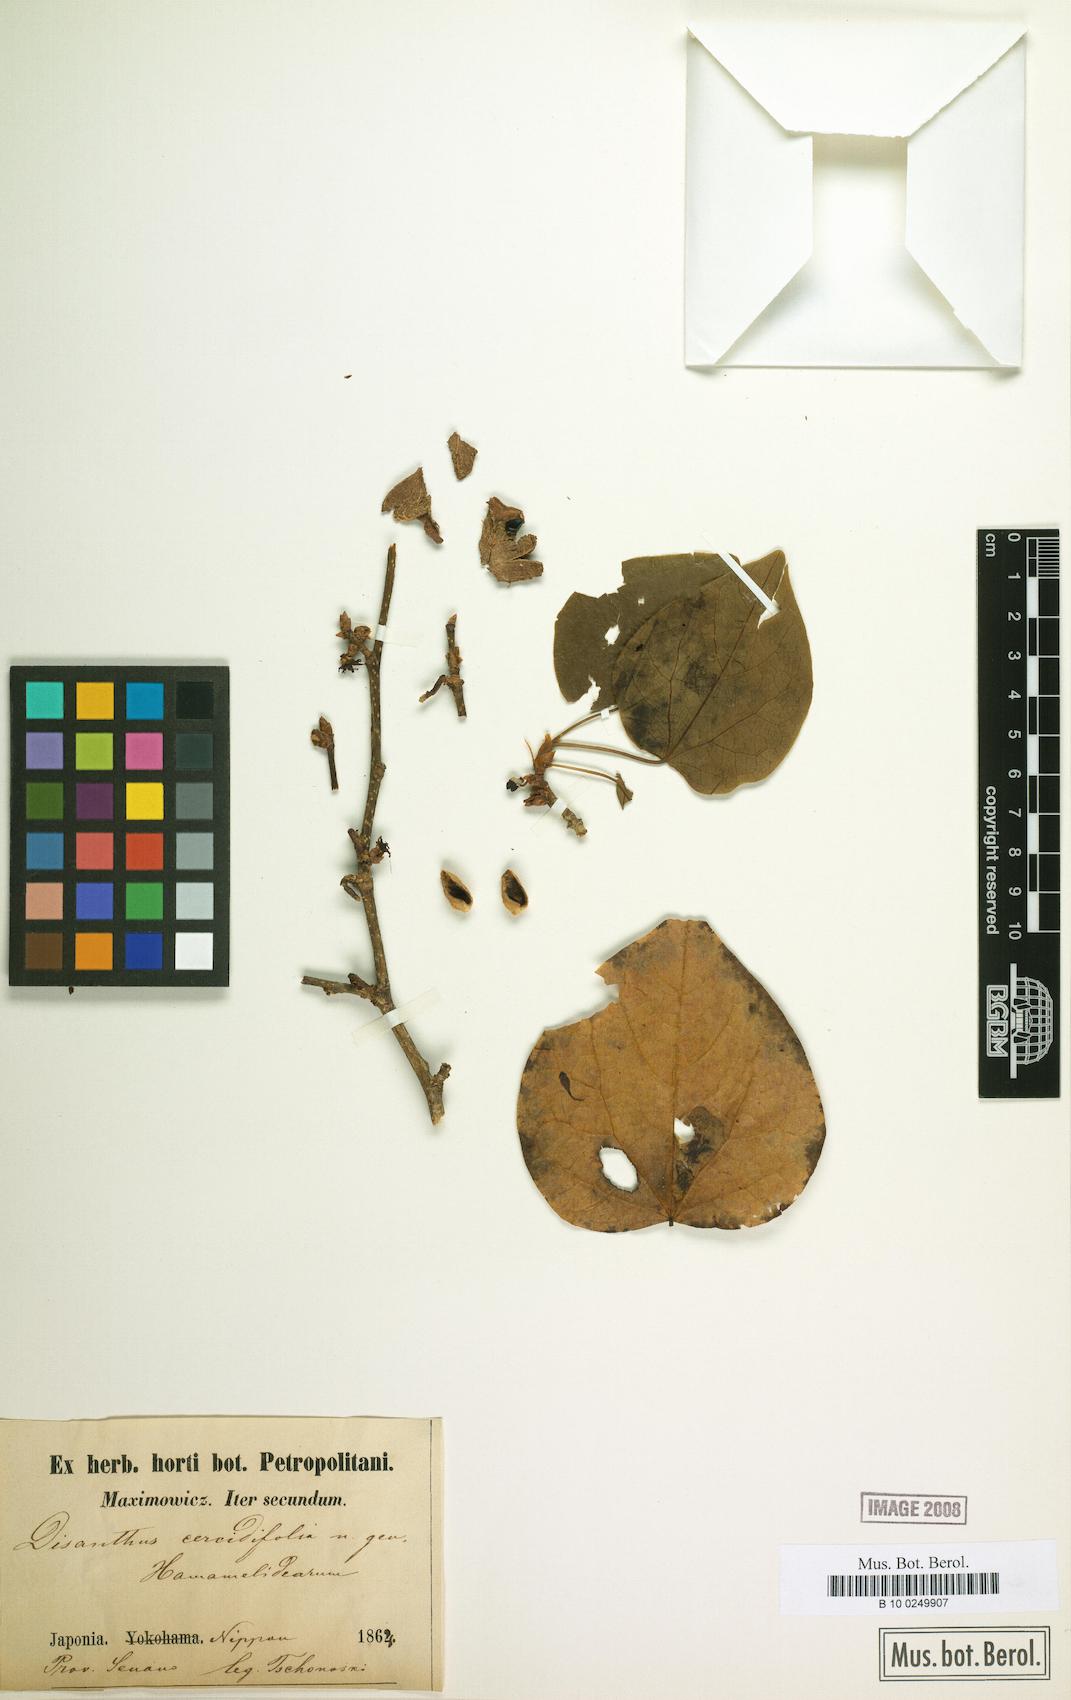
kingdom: Plantae
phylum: Tracheophyta
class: Magnoliopsida
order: Saxifragales
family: Hamamelidaceae
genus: Disanthus
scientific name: Disanthus cercidifolius
